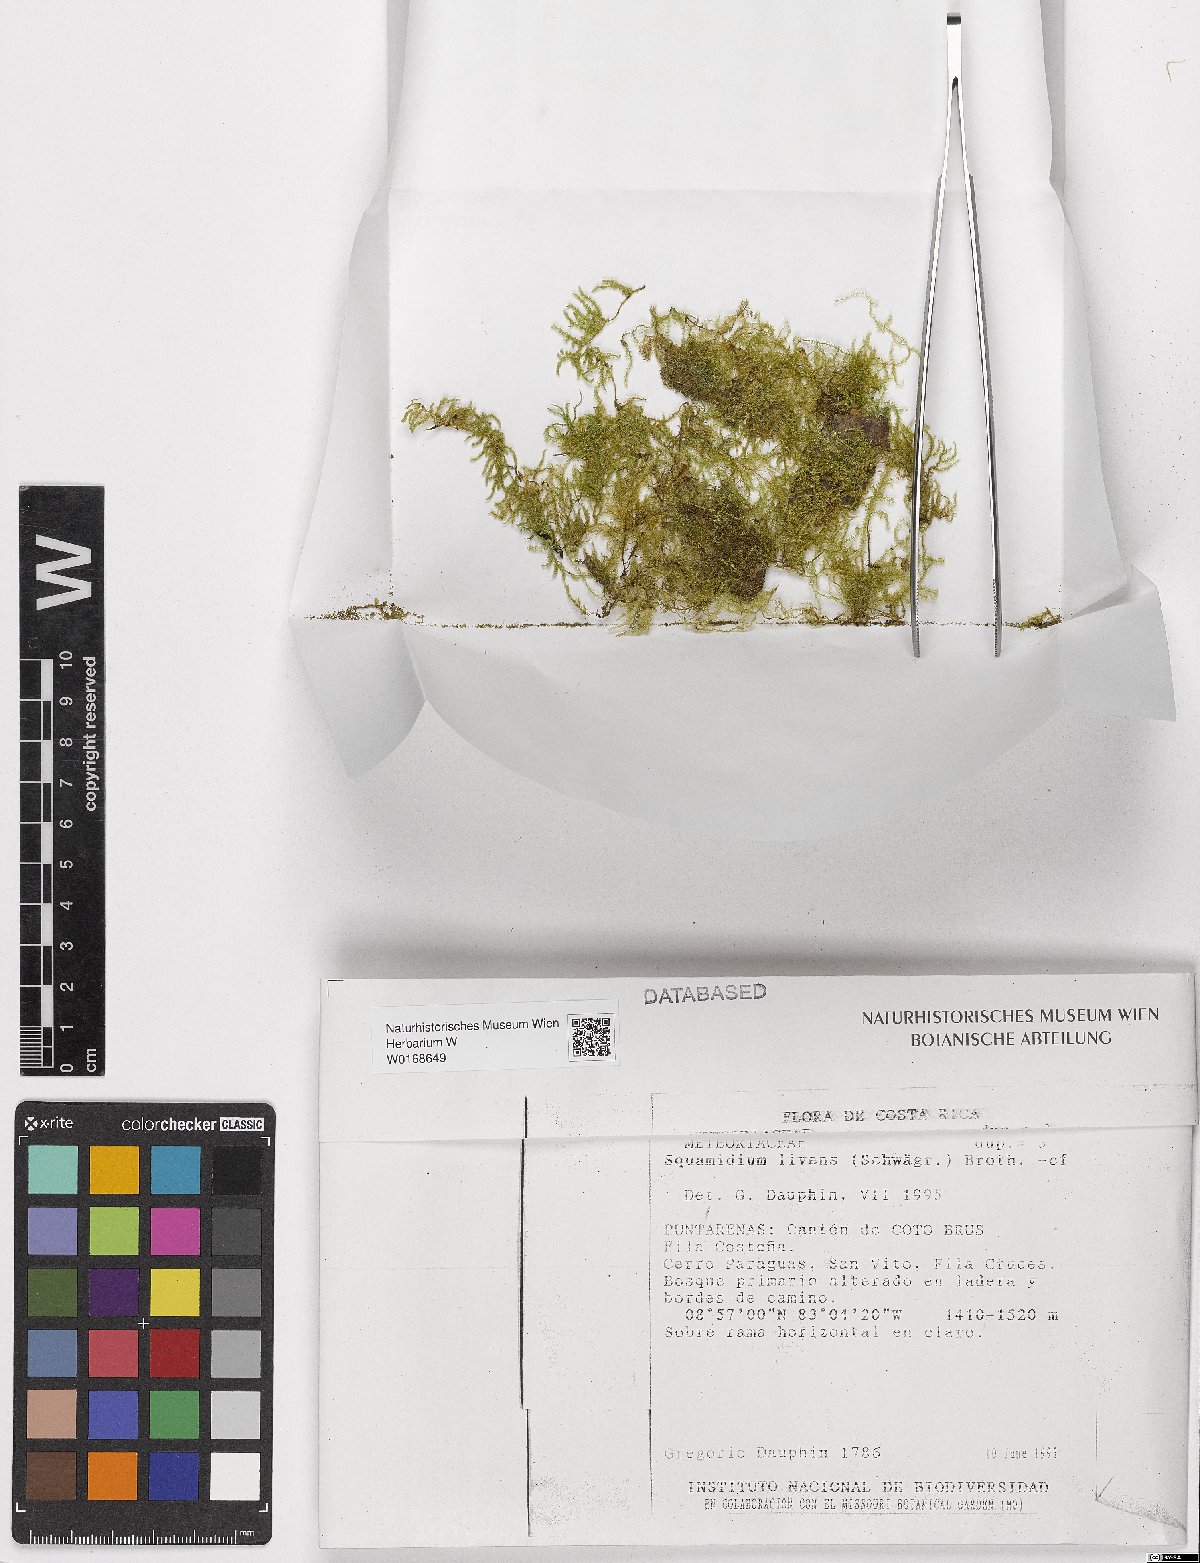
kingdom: Plantae
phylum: Bryophyta
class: Bryopsida
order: Hypnales
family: Brachytheciaceae
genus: Squamidium
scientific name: Squamidium livens
